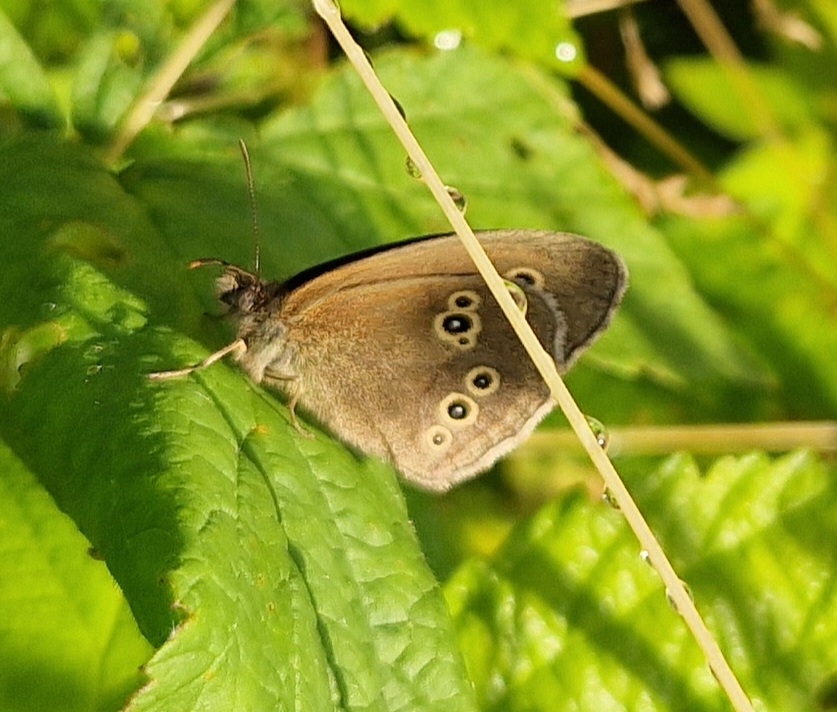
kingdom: Animalia
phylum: Arthropoda
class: Insecta
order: Lepidoptera
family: Nymphalidae
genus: Aphantopus
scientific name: Aphantopus hyperantus
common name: Engrandøje
